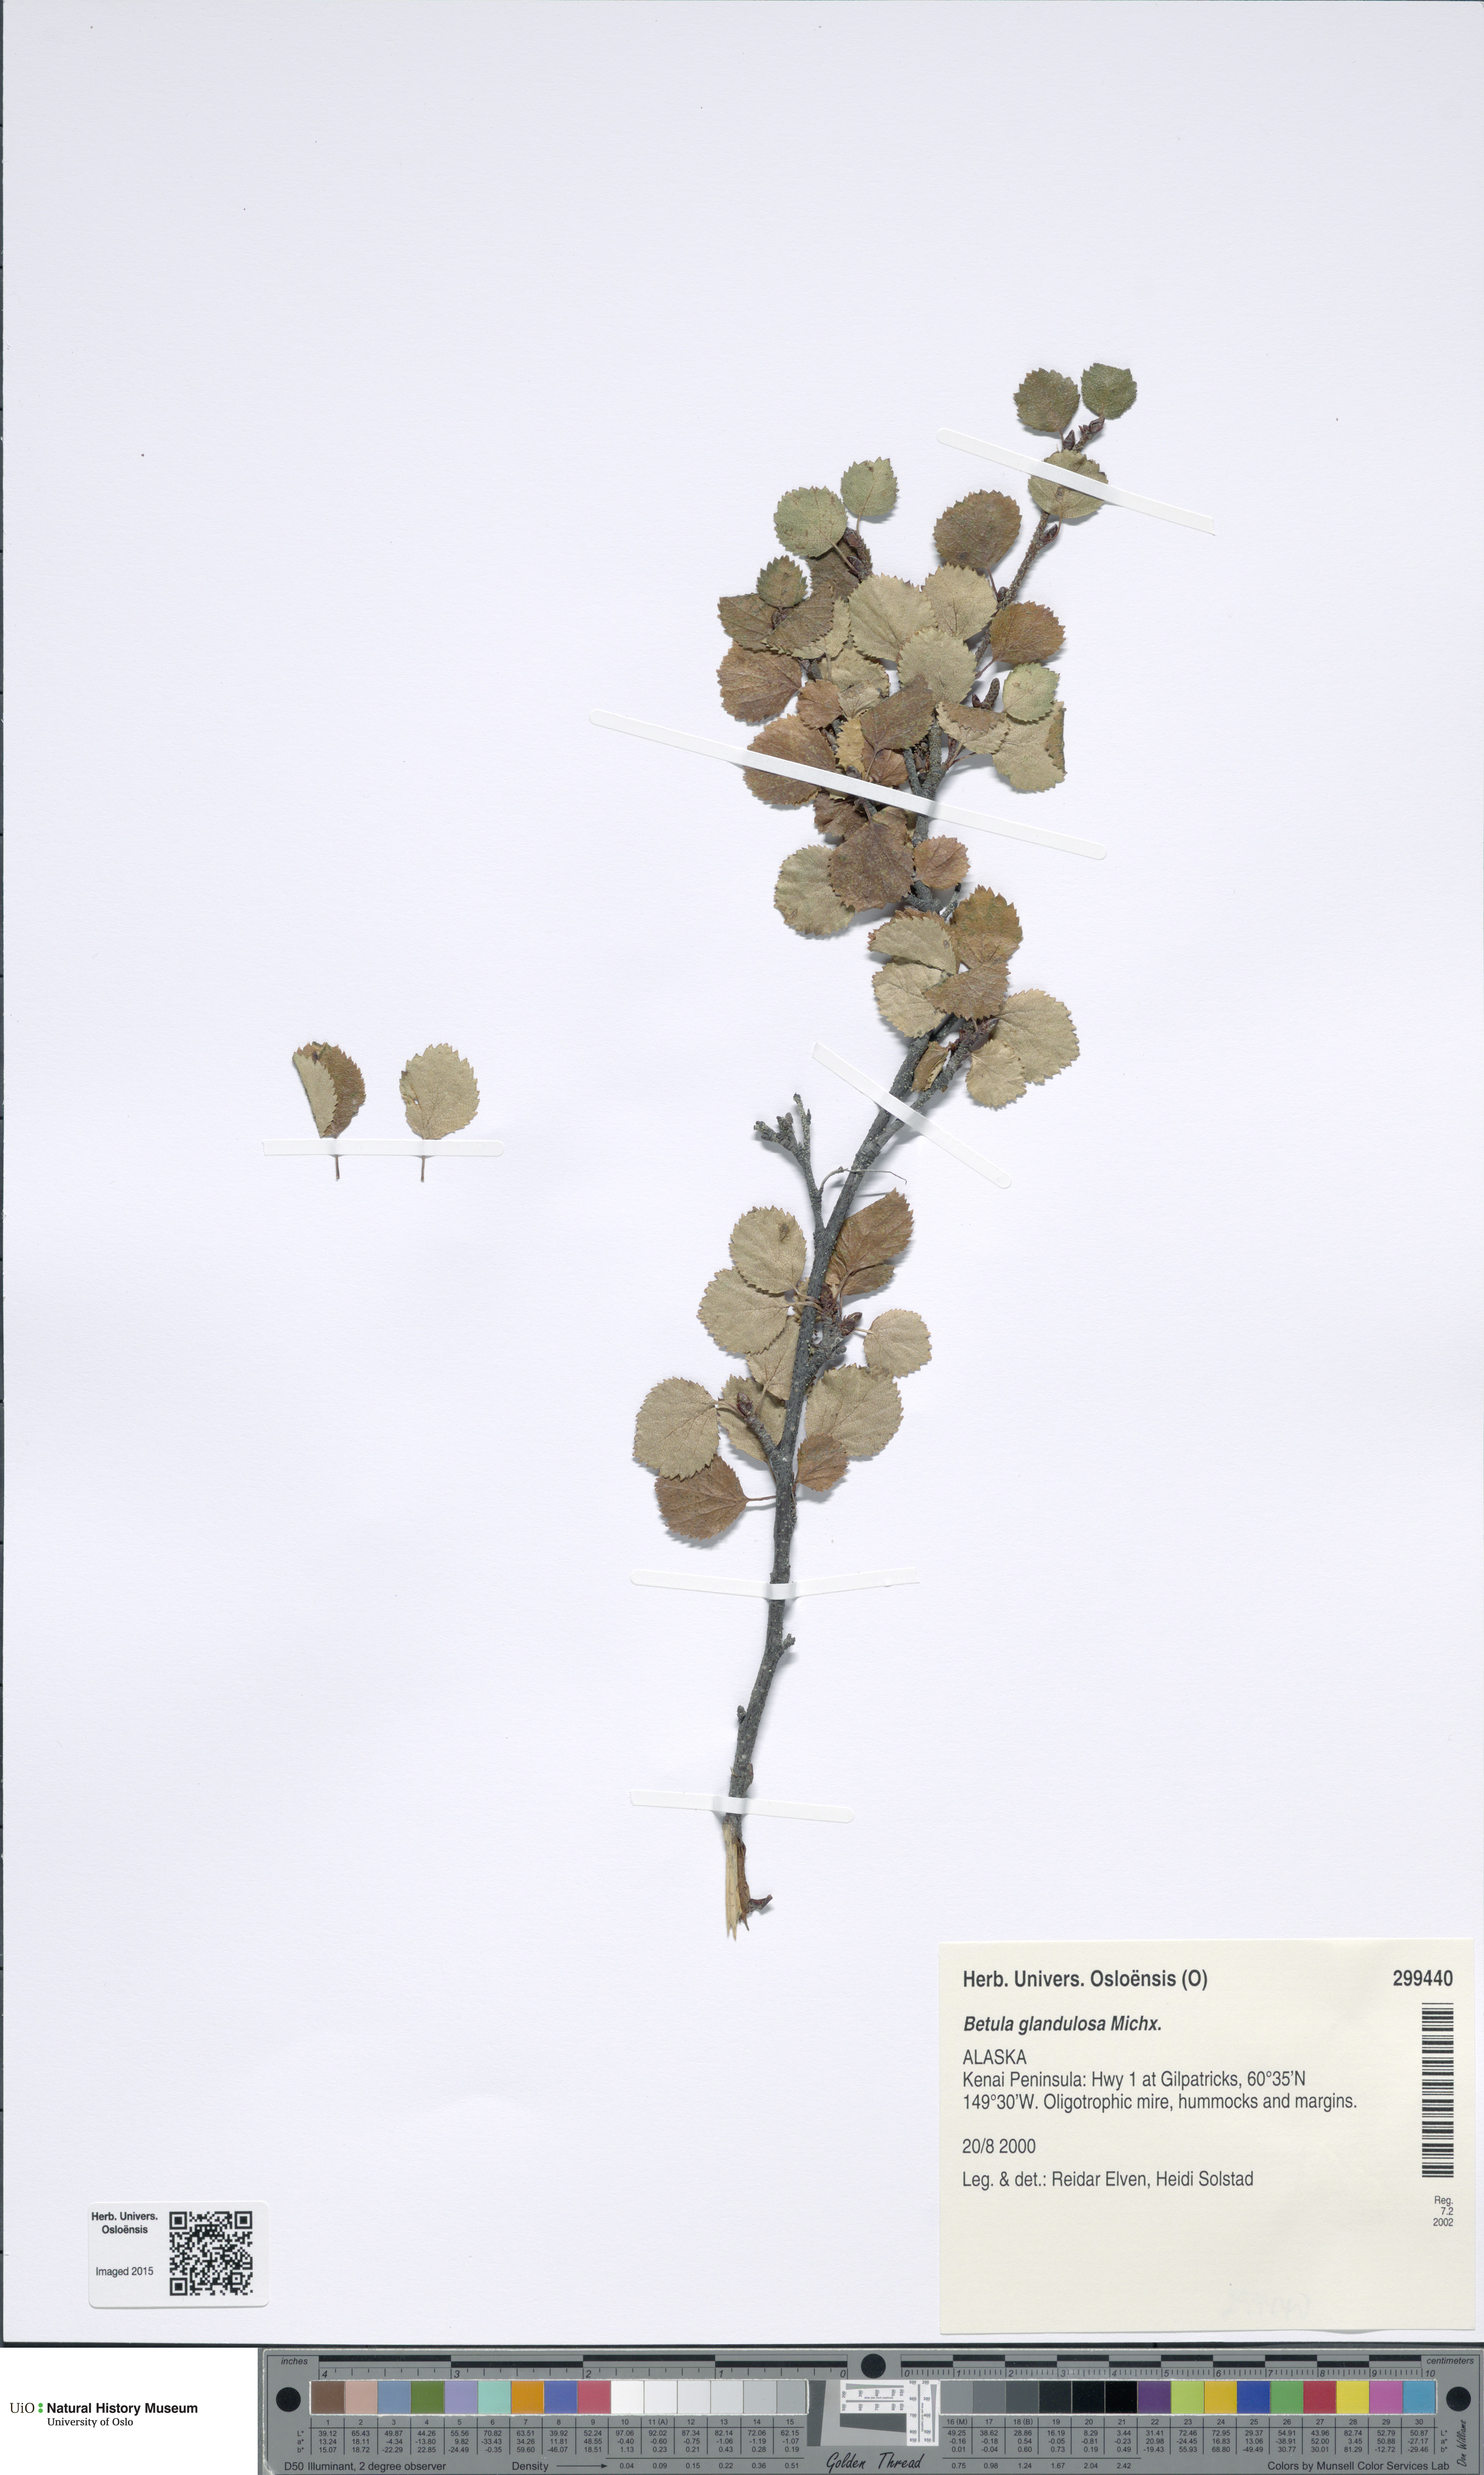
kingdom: Plantae
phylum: Tracheophyta
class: Magnoliopsida
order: Fagales
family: Betulaceae
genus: Betula
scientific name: Betula glandulosa
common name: Dwarf birch
